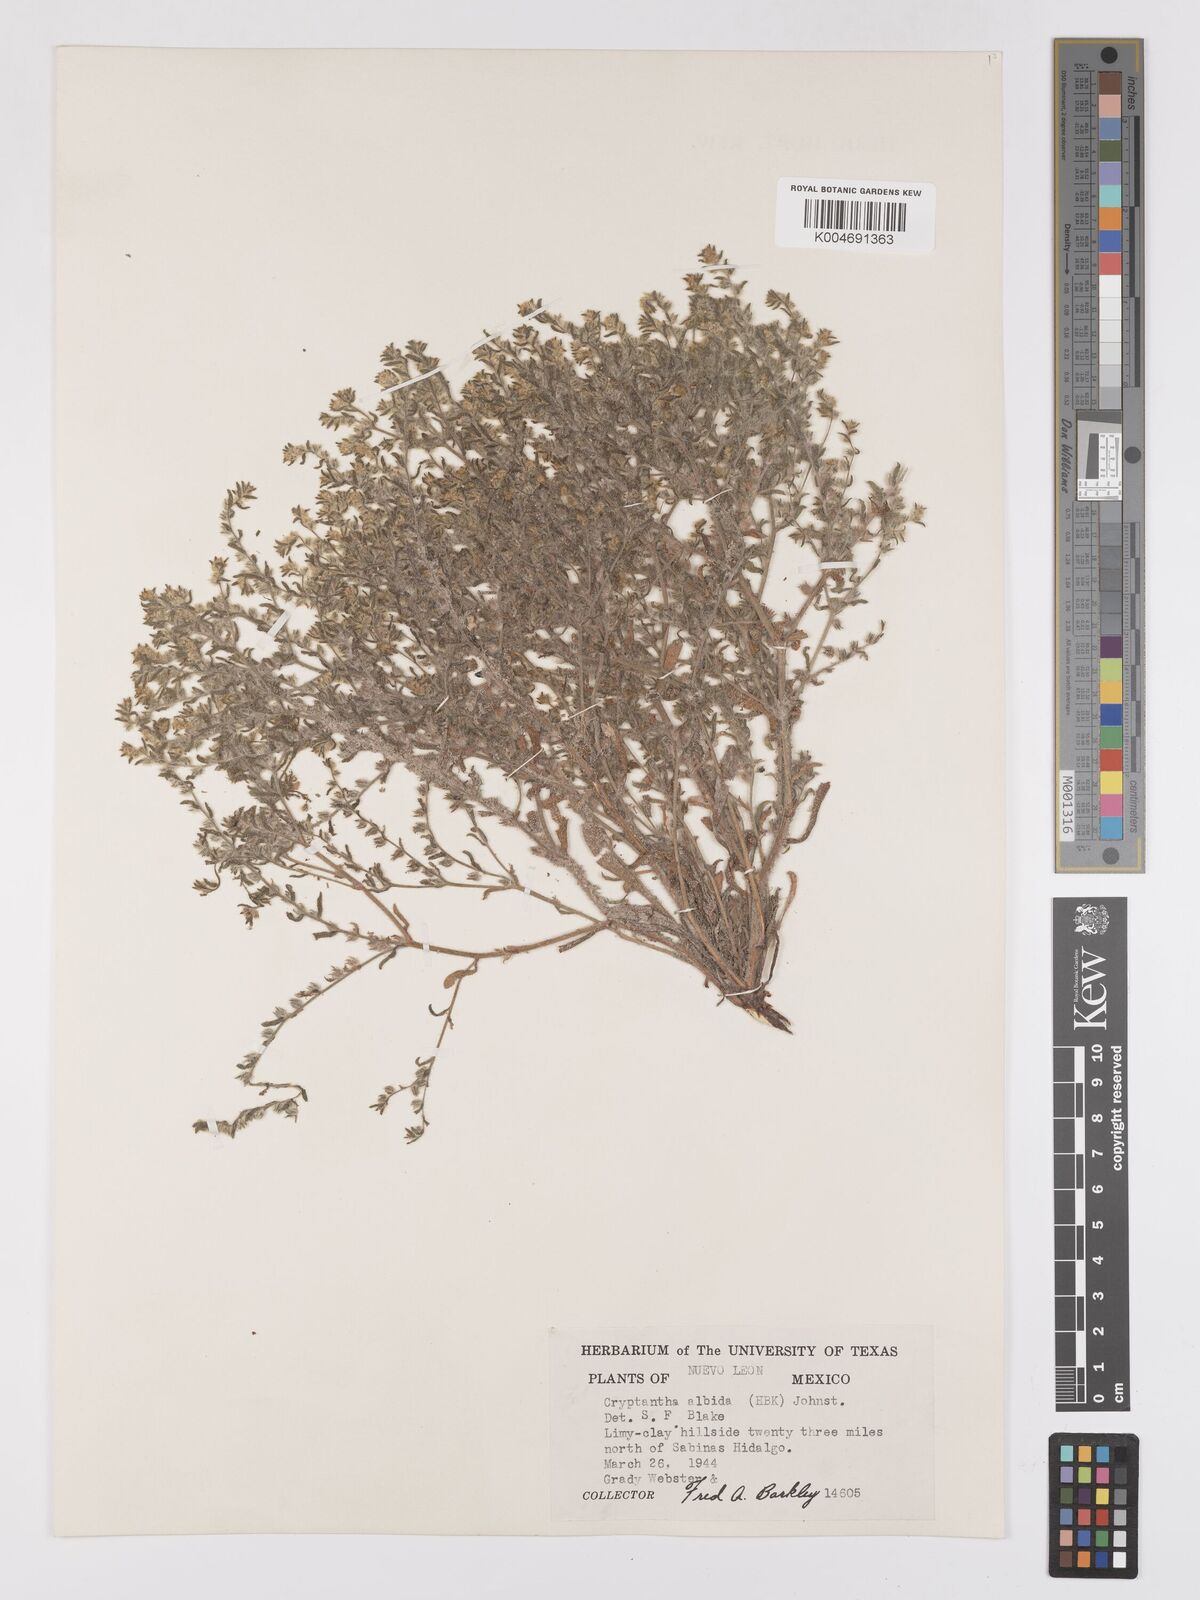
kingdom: Plantae
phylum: Tracheophyta
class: Magnoliopsida
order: Boraginales
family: Boraginaceae
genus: Johnstonella
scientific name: Johnstonella albida
